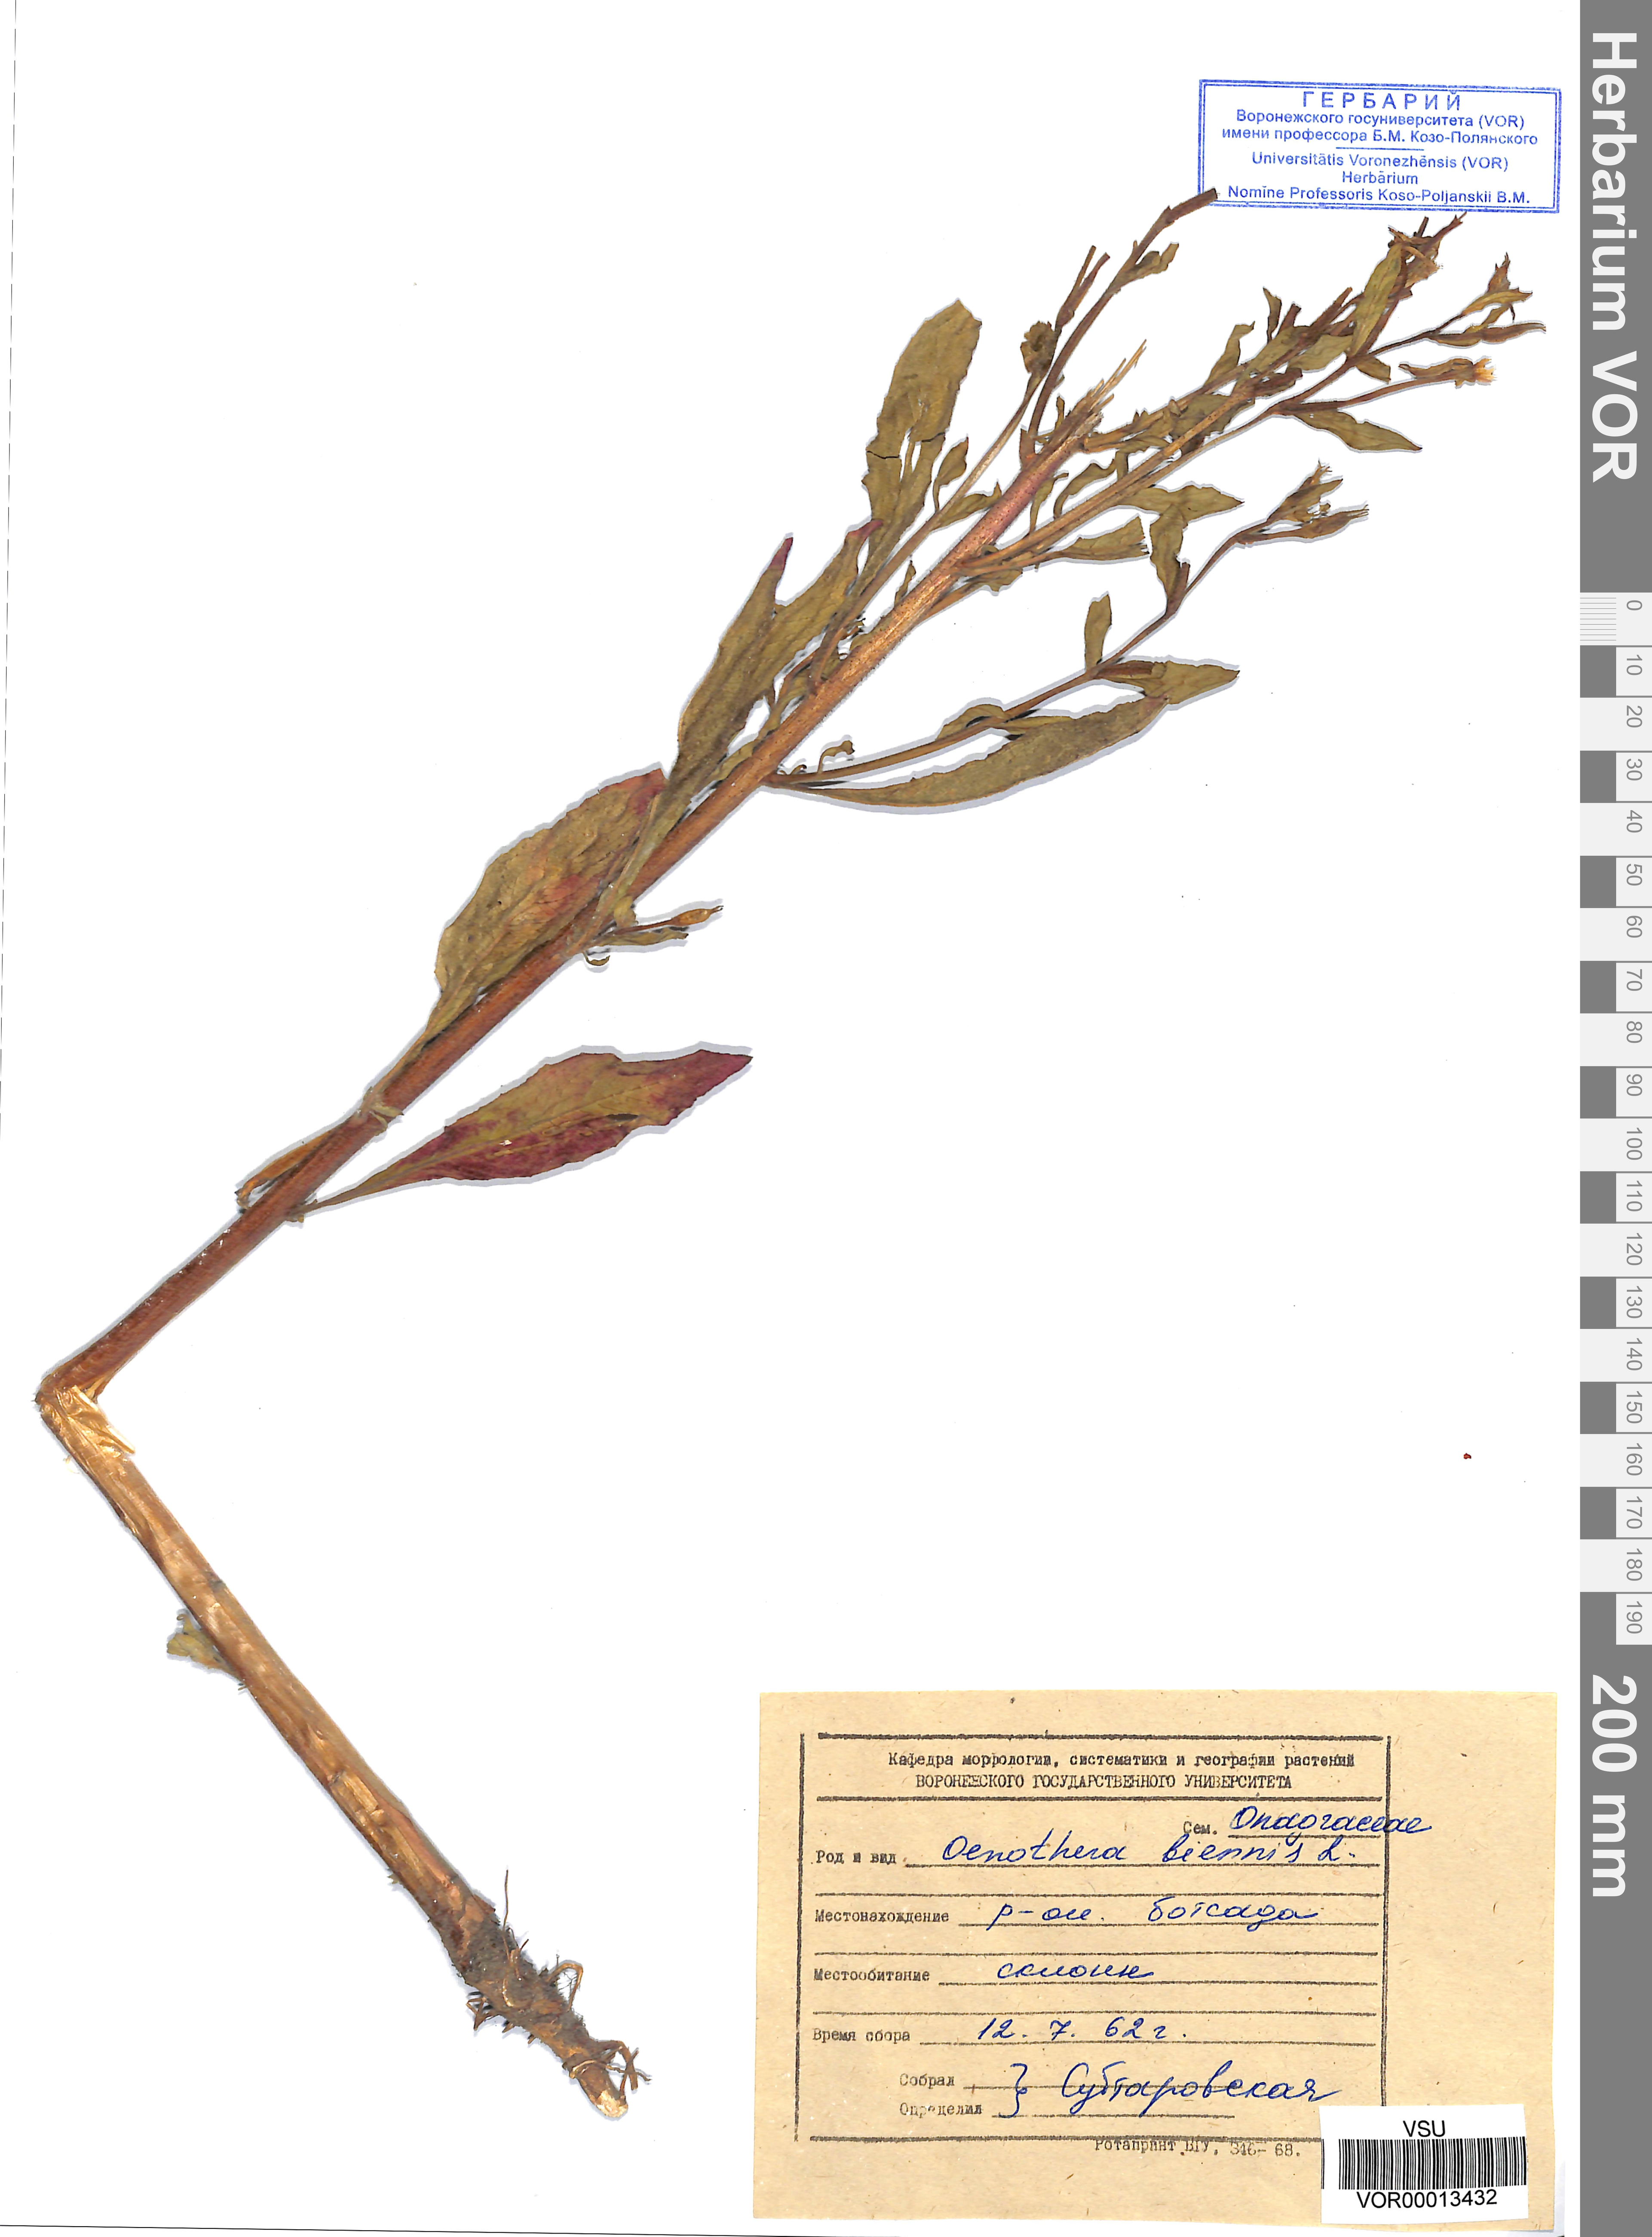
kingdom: Plantae
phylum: Tracheophyta
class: Magnoliopsida
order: Myrtales
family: Onagraceae
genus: Oenothera
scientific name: Oenothera biennis
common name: Common evening-primrose
